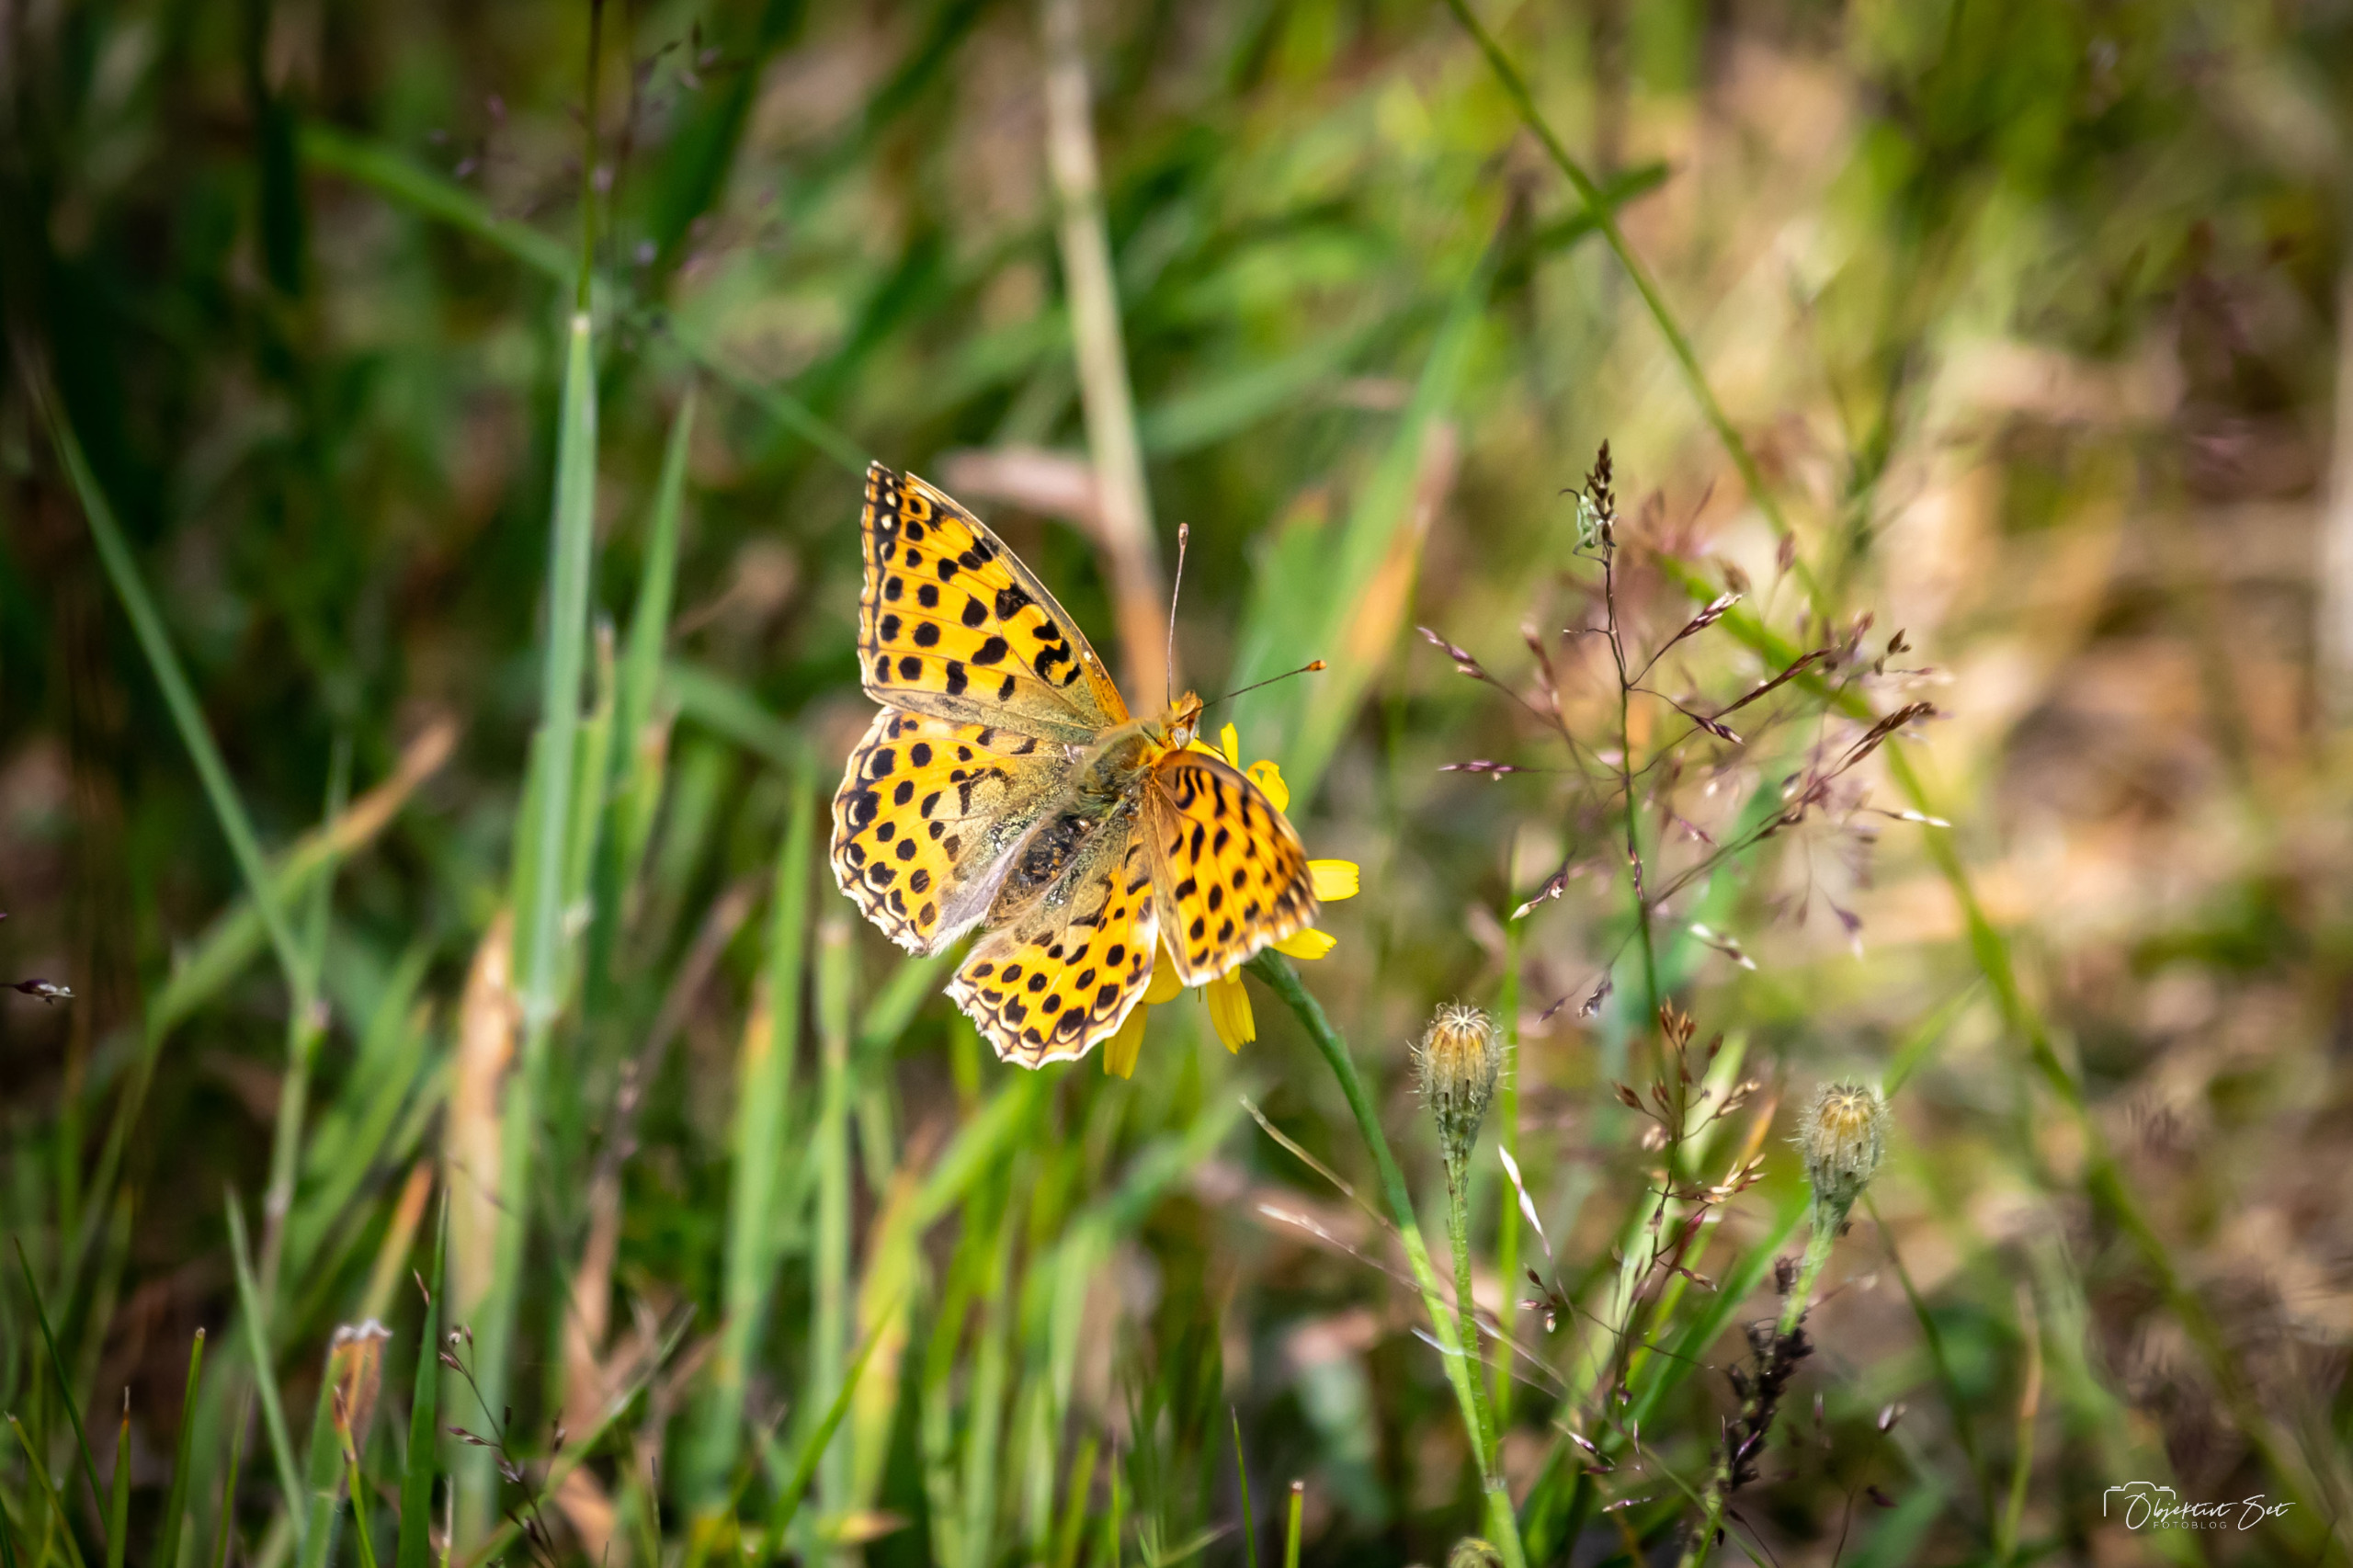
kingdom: Animalia
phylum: Arthropoda
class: Insecta
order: Lepidoptera
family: Nymphalidae
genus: Issoria
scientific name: Issoria lathonia
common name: Storplettet perlemorsommerfugl
